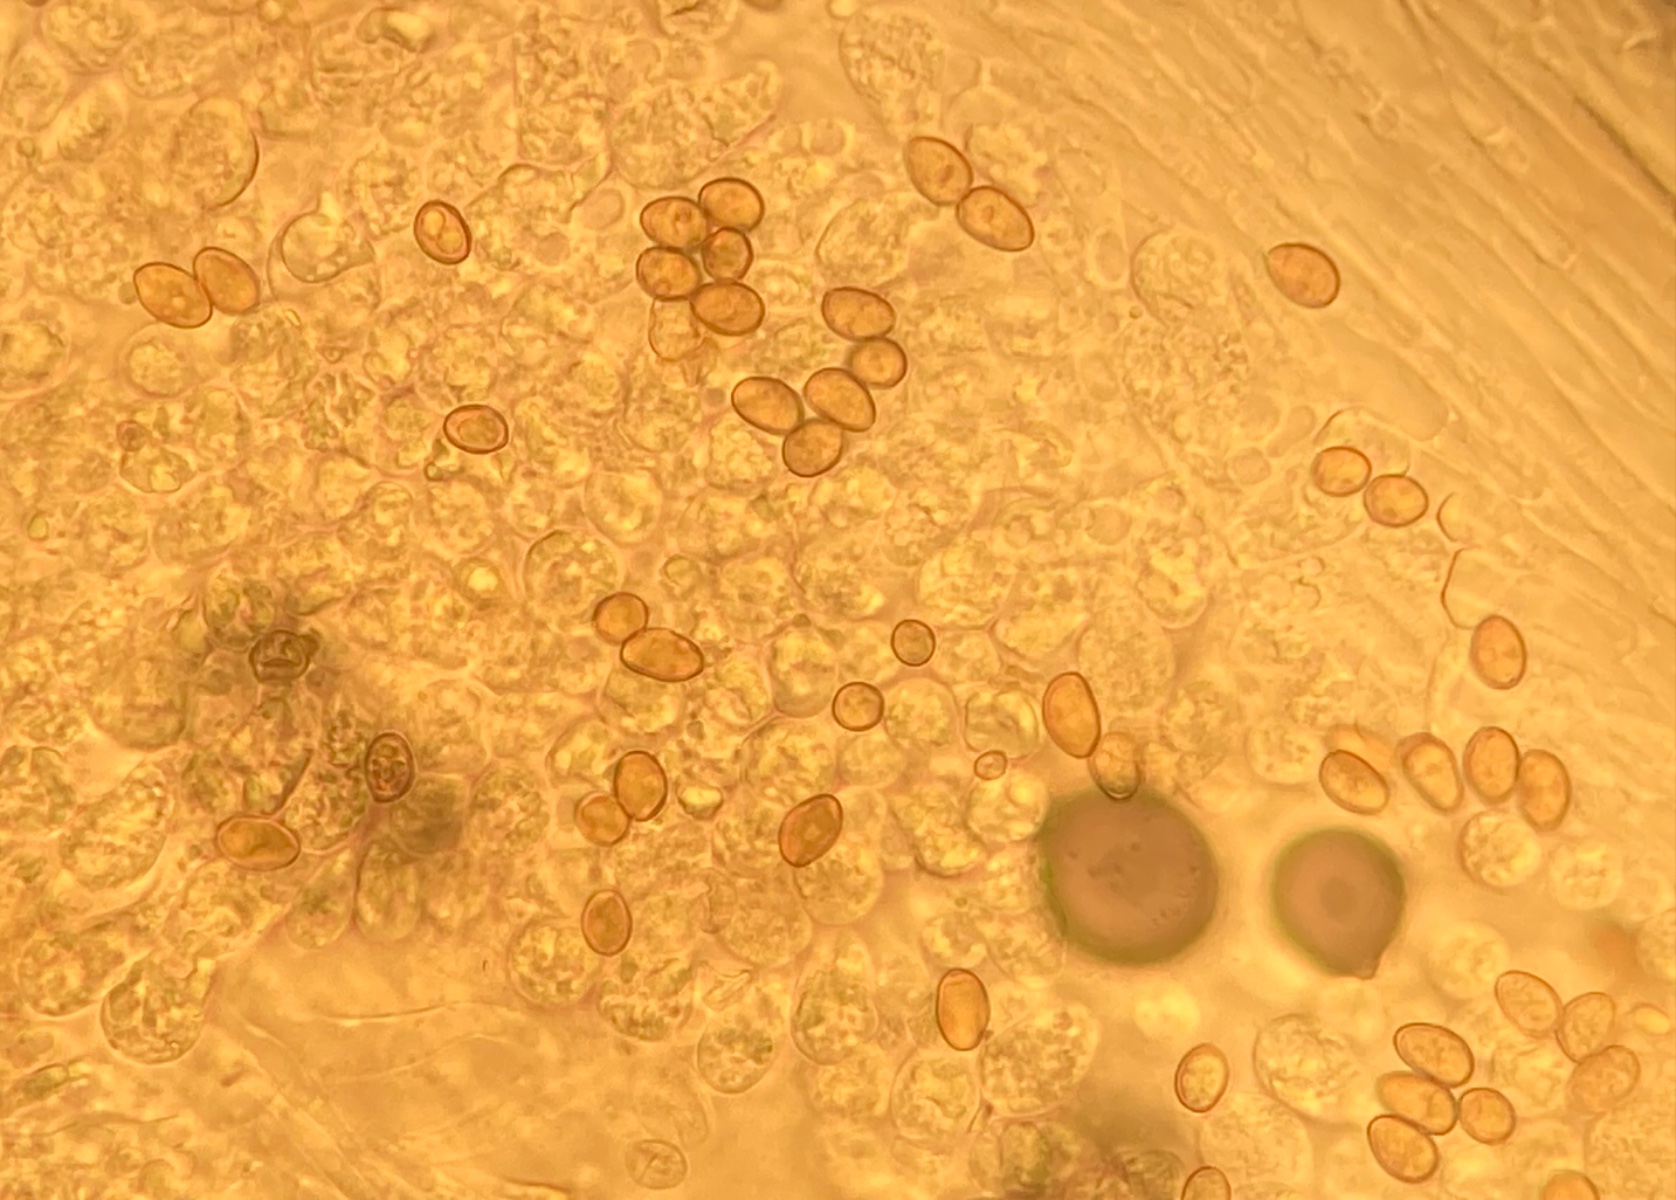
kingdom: Fungi
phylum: Basidiomycota
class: Agaricomycetes
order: Agaricales
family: Inocybaceae
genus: Pseudosperma
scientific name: Pseudosperma aureocitrinum
